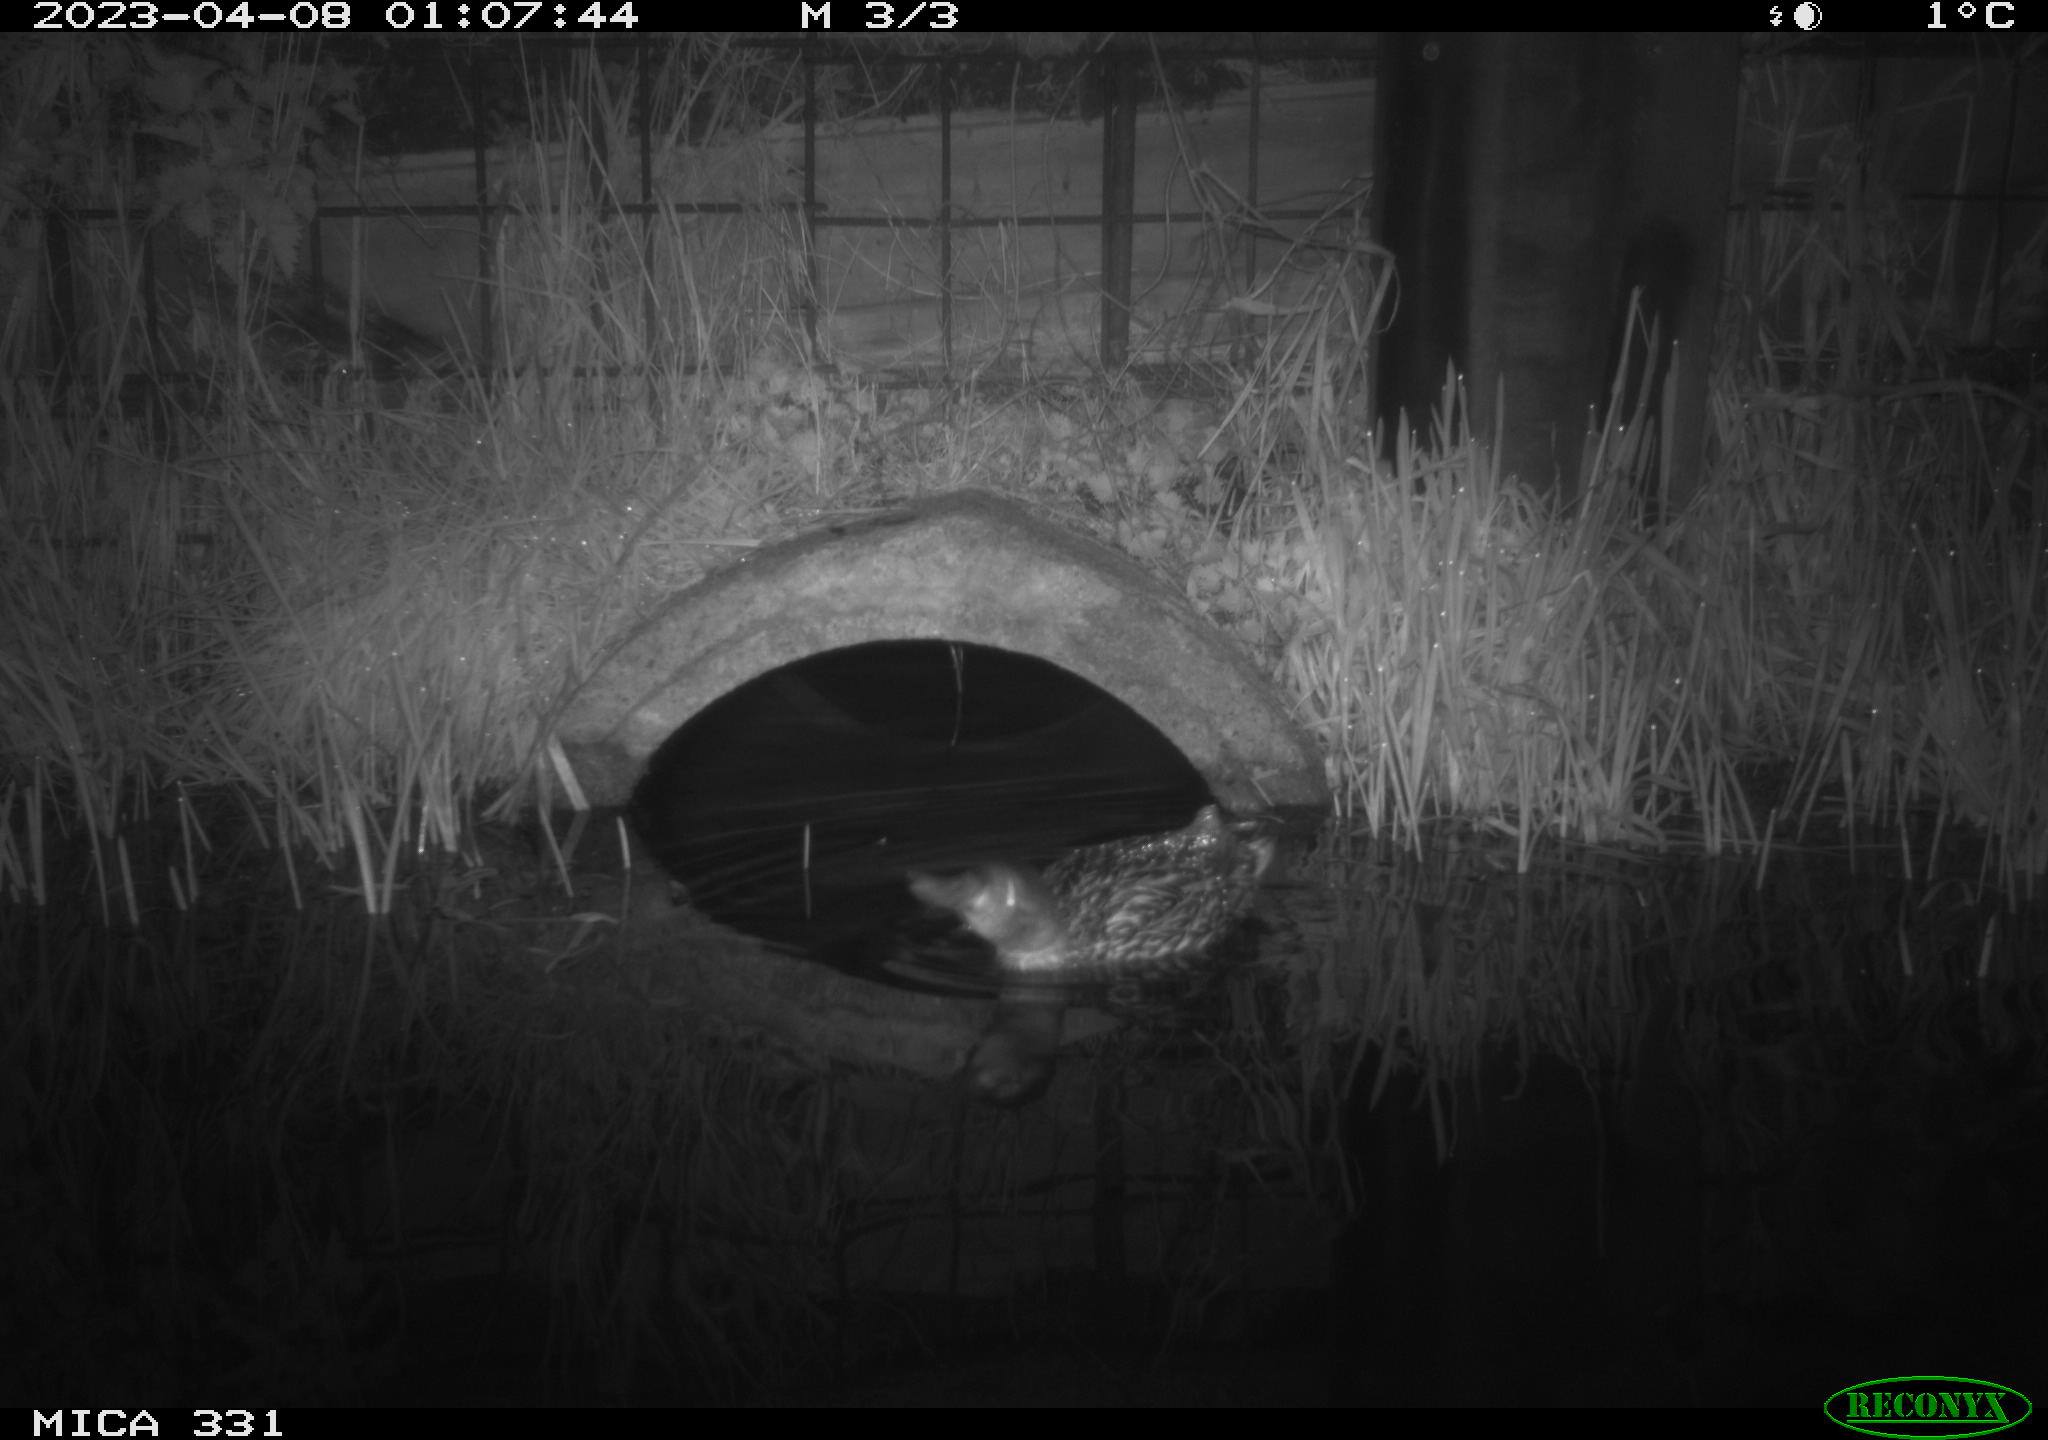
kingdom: Animalia
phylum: Chordata
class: Aves
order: Anseriformes
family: Anatidae
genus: Anas
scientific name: Anas
